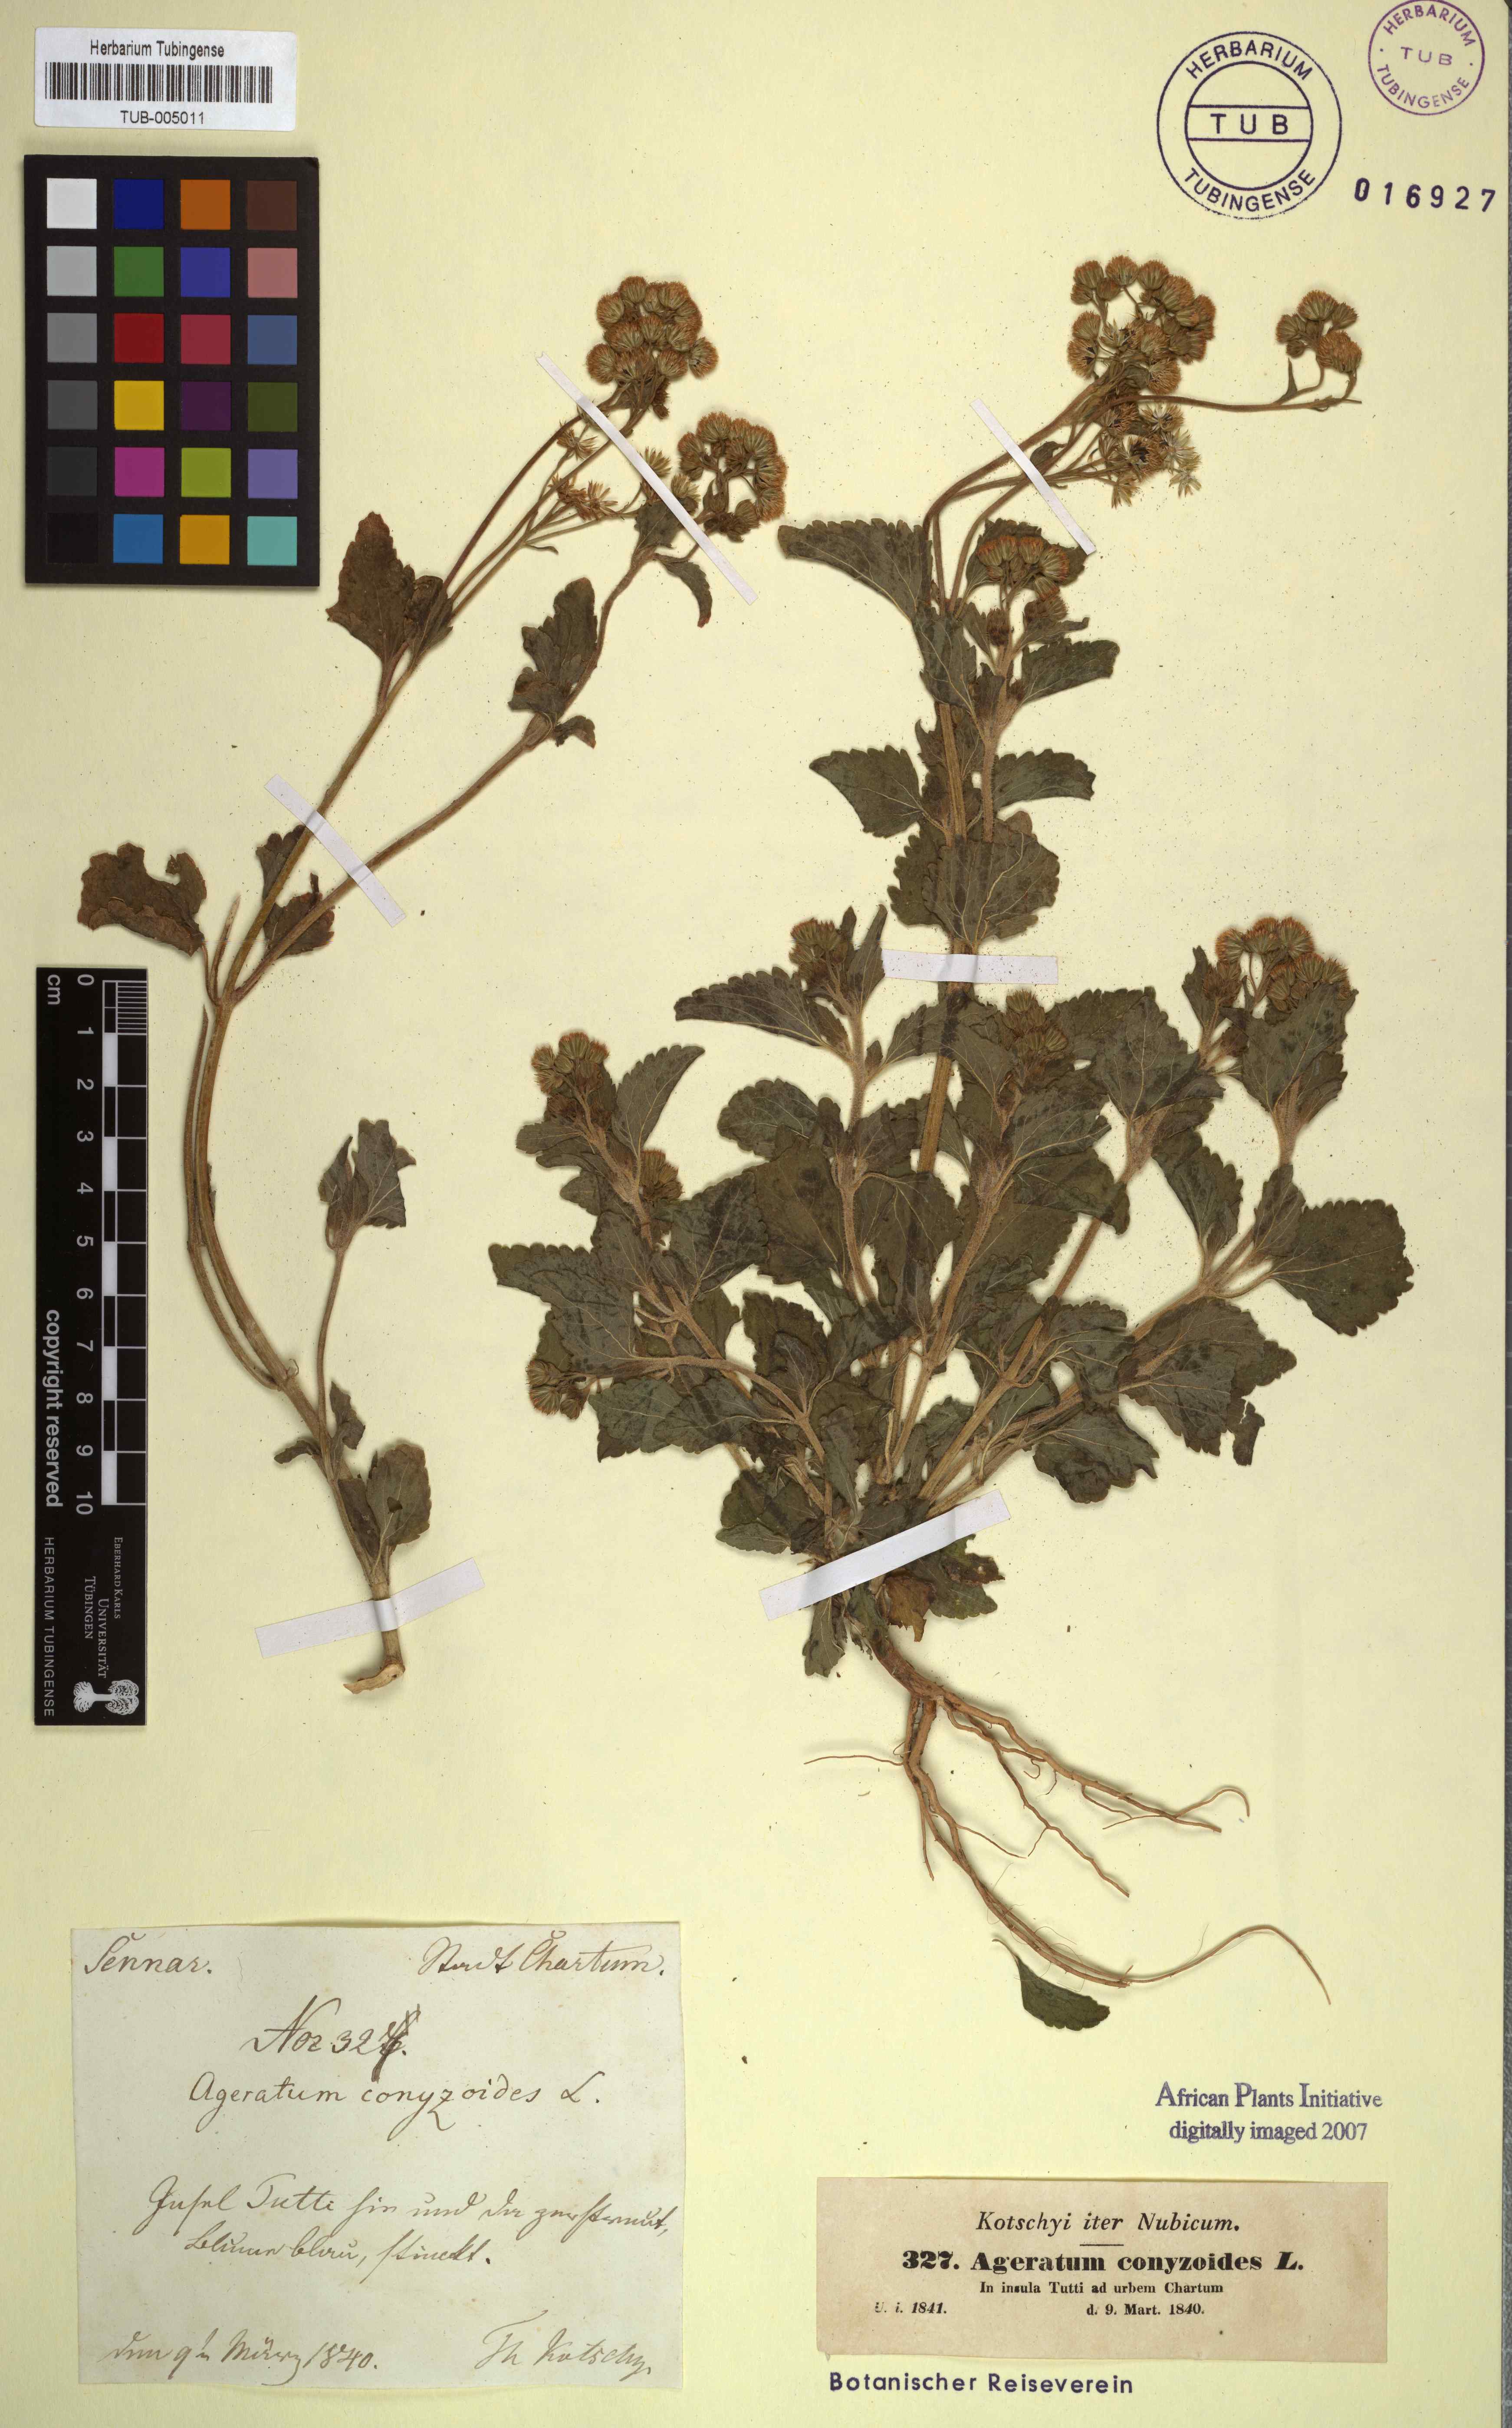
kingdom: Plantae
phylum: Tracheophyta
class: Magnoliopsida
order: Asterales
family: Asteraceae
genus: Ageratum
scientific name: Ageratum conyzoides
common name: Tropical whiteweed
